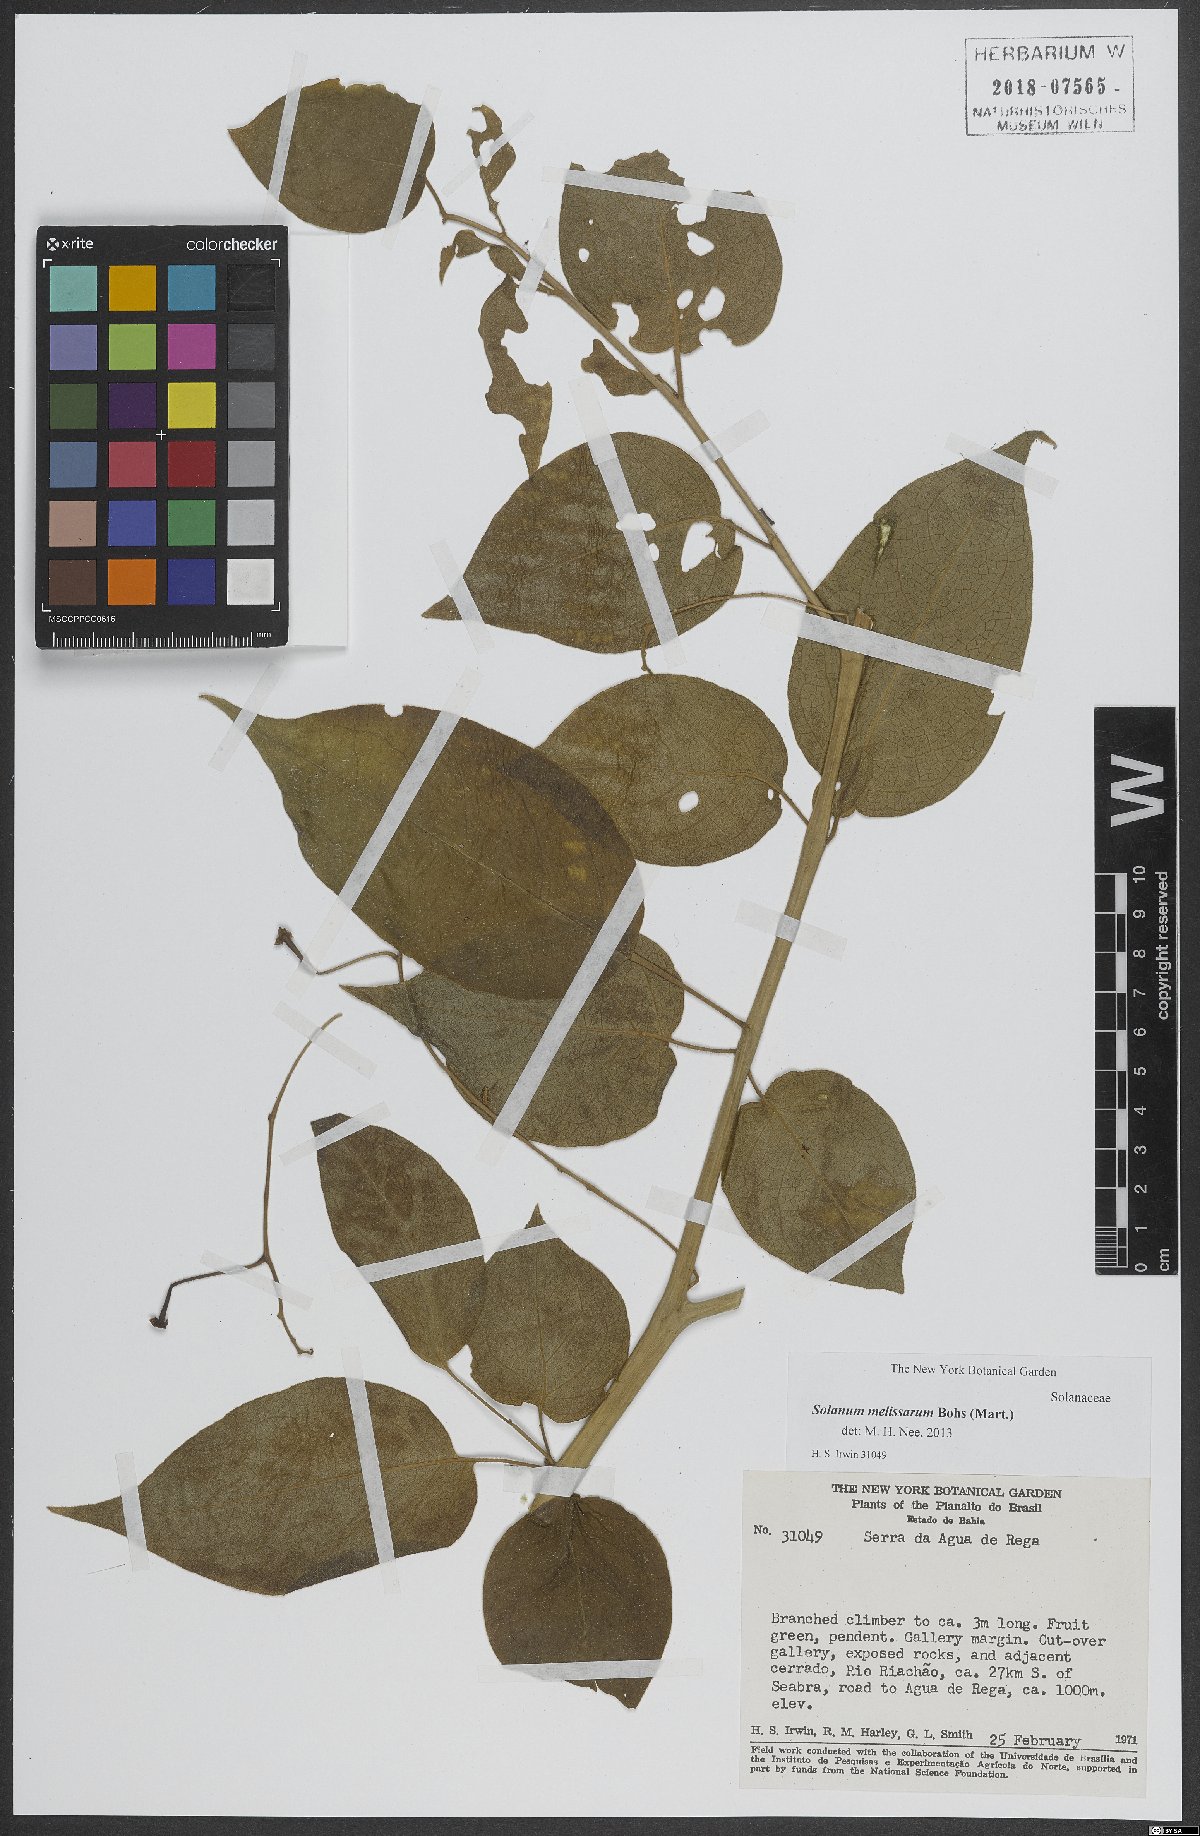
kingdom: Plantae
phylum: Tracheophyta
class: Magnoliopsida
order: Solanales
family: Solanaceae
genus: Solanum
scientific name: Solanum melissarum
